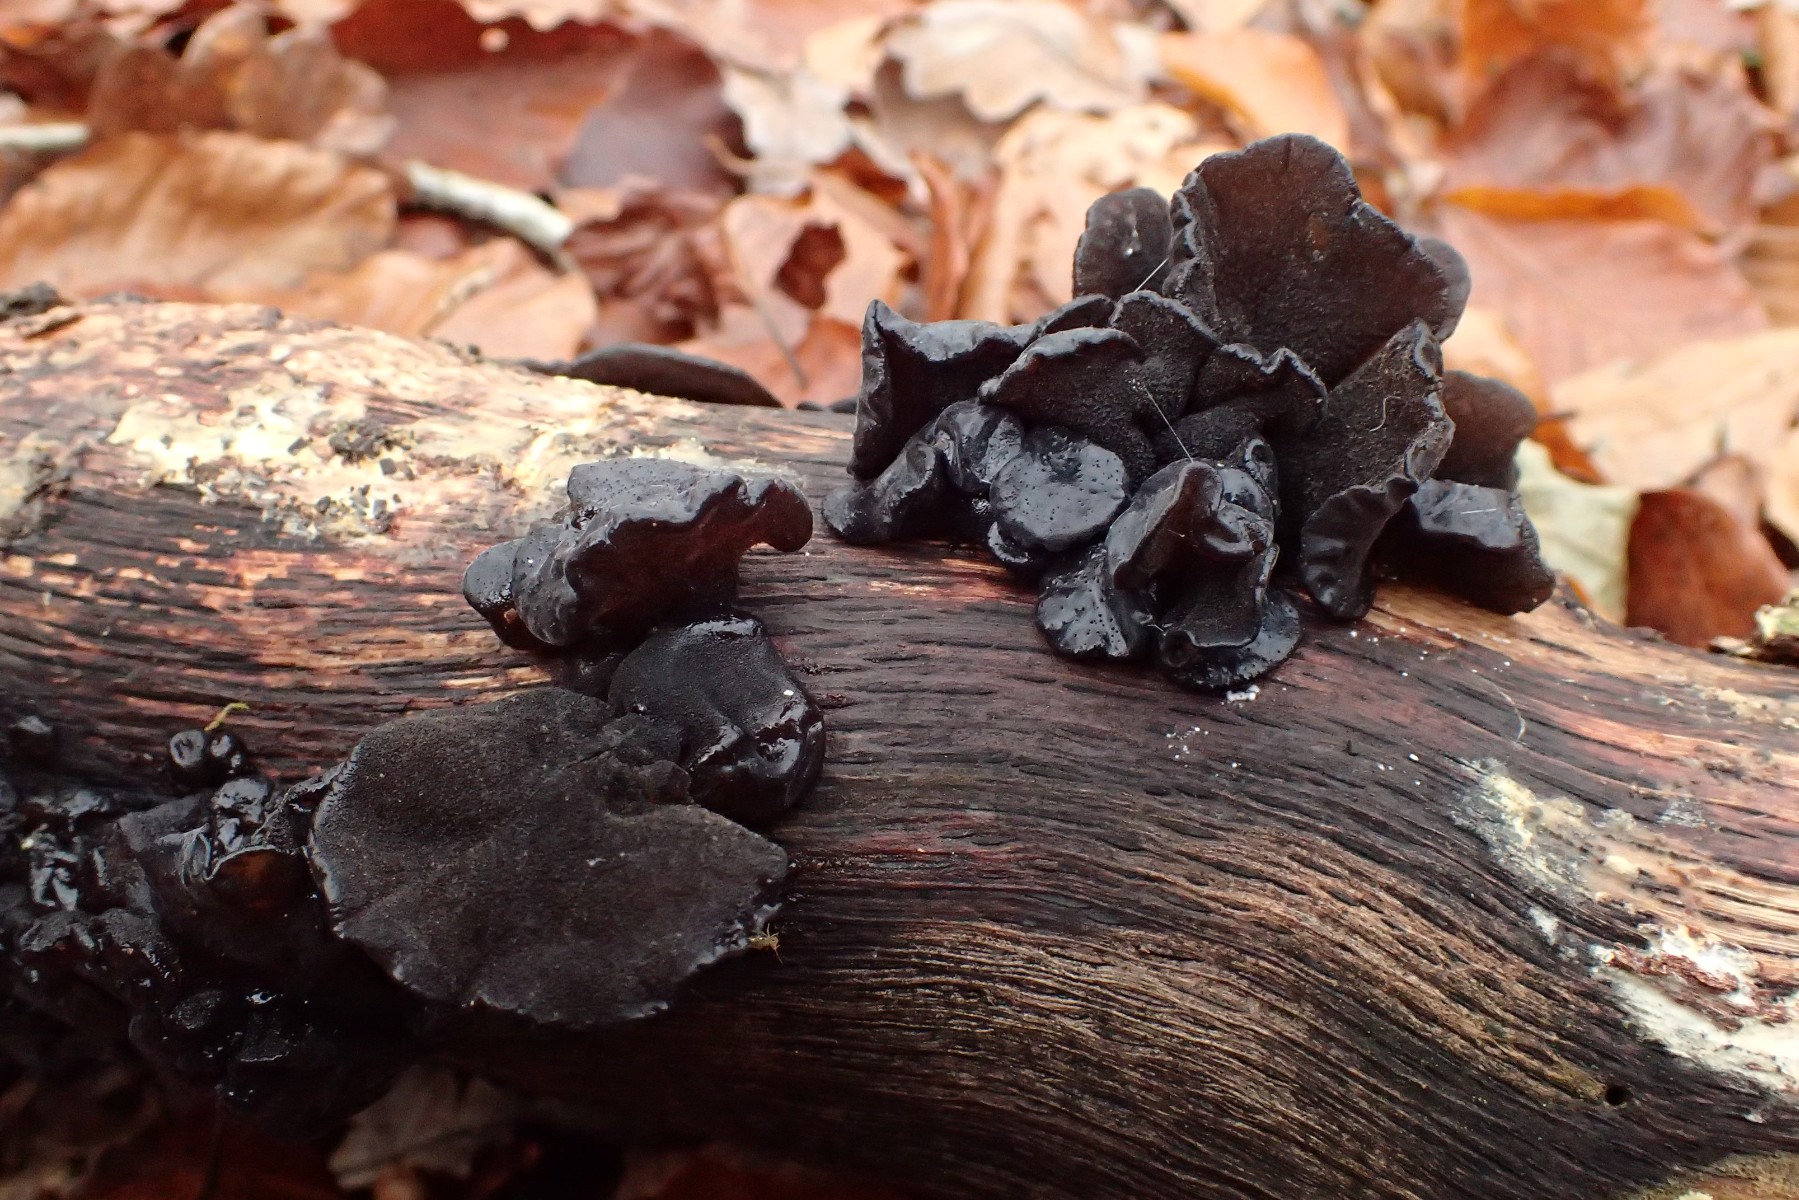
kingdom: Fungi
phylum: Basidiomycota
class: Agaricomycetes
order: Auriculariales
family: Auriculariaceae
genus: Exidia
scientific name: Exidia glandulosa
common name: ege-bævretop
